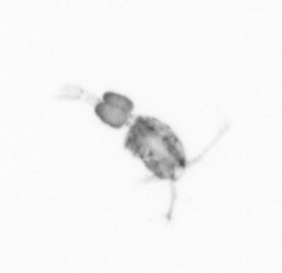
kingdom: Animalia
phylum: Arthropoda
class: Copepoda
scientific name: Copepoda
